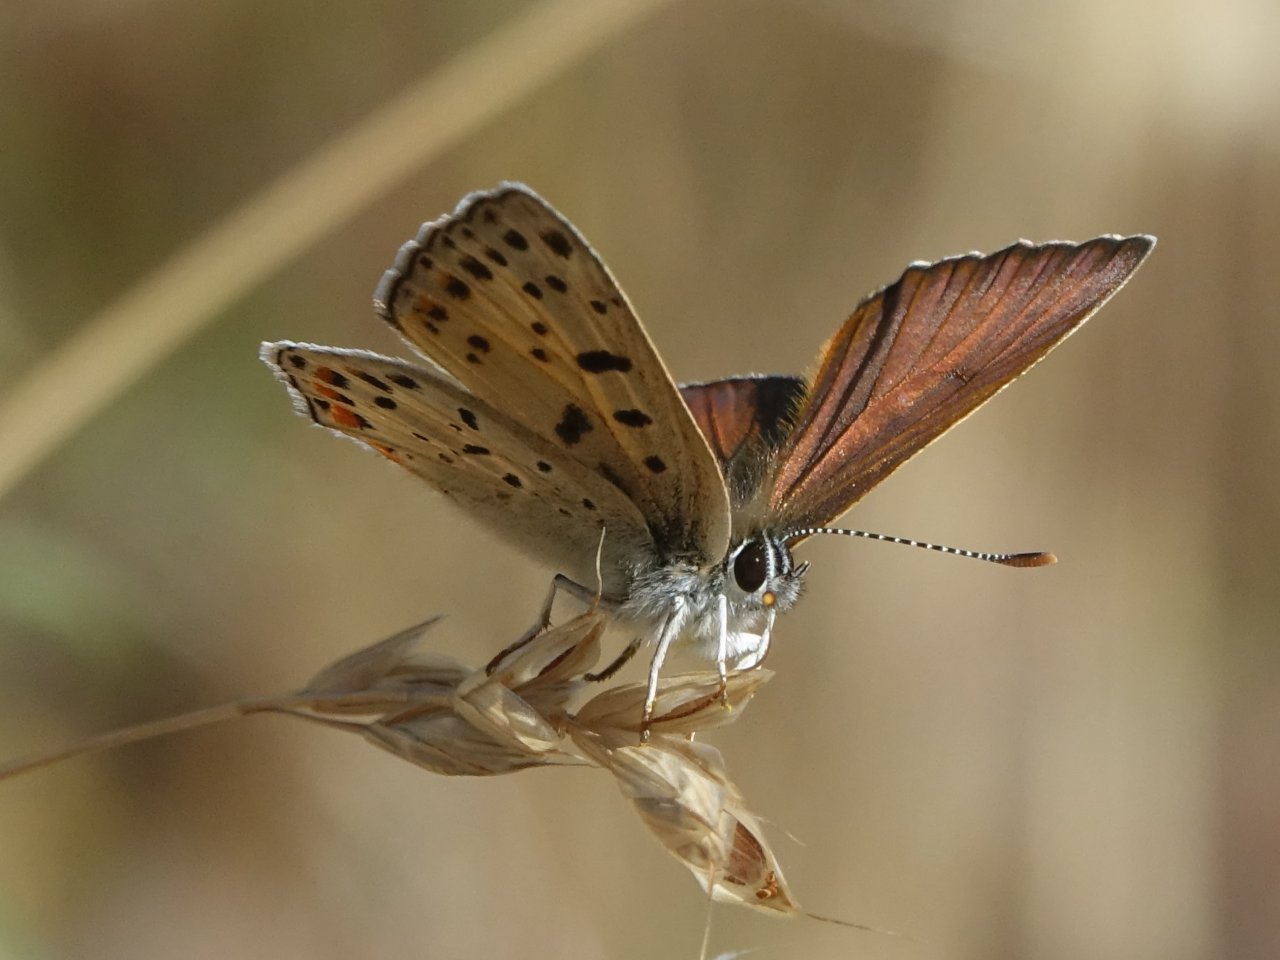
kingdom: Animalia
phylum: Arthropoda
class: Insecta
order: Lepidoptera
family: Lycaenidae
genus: Lycaena
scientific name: Lycaena gorgon
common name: Gorgon Copper
